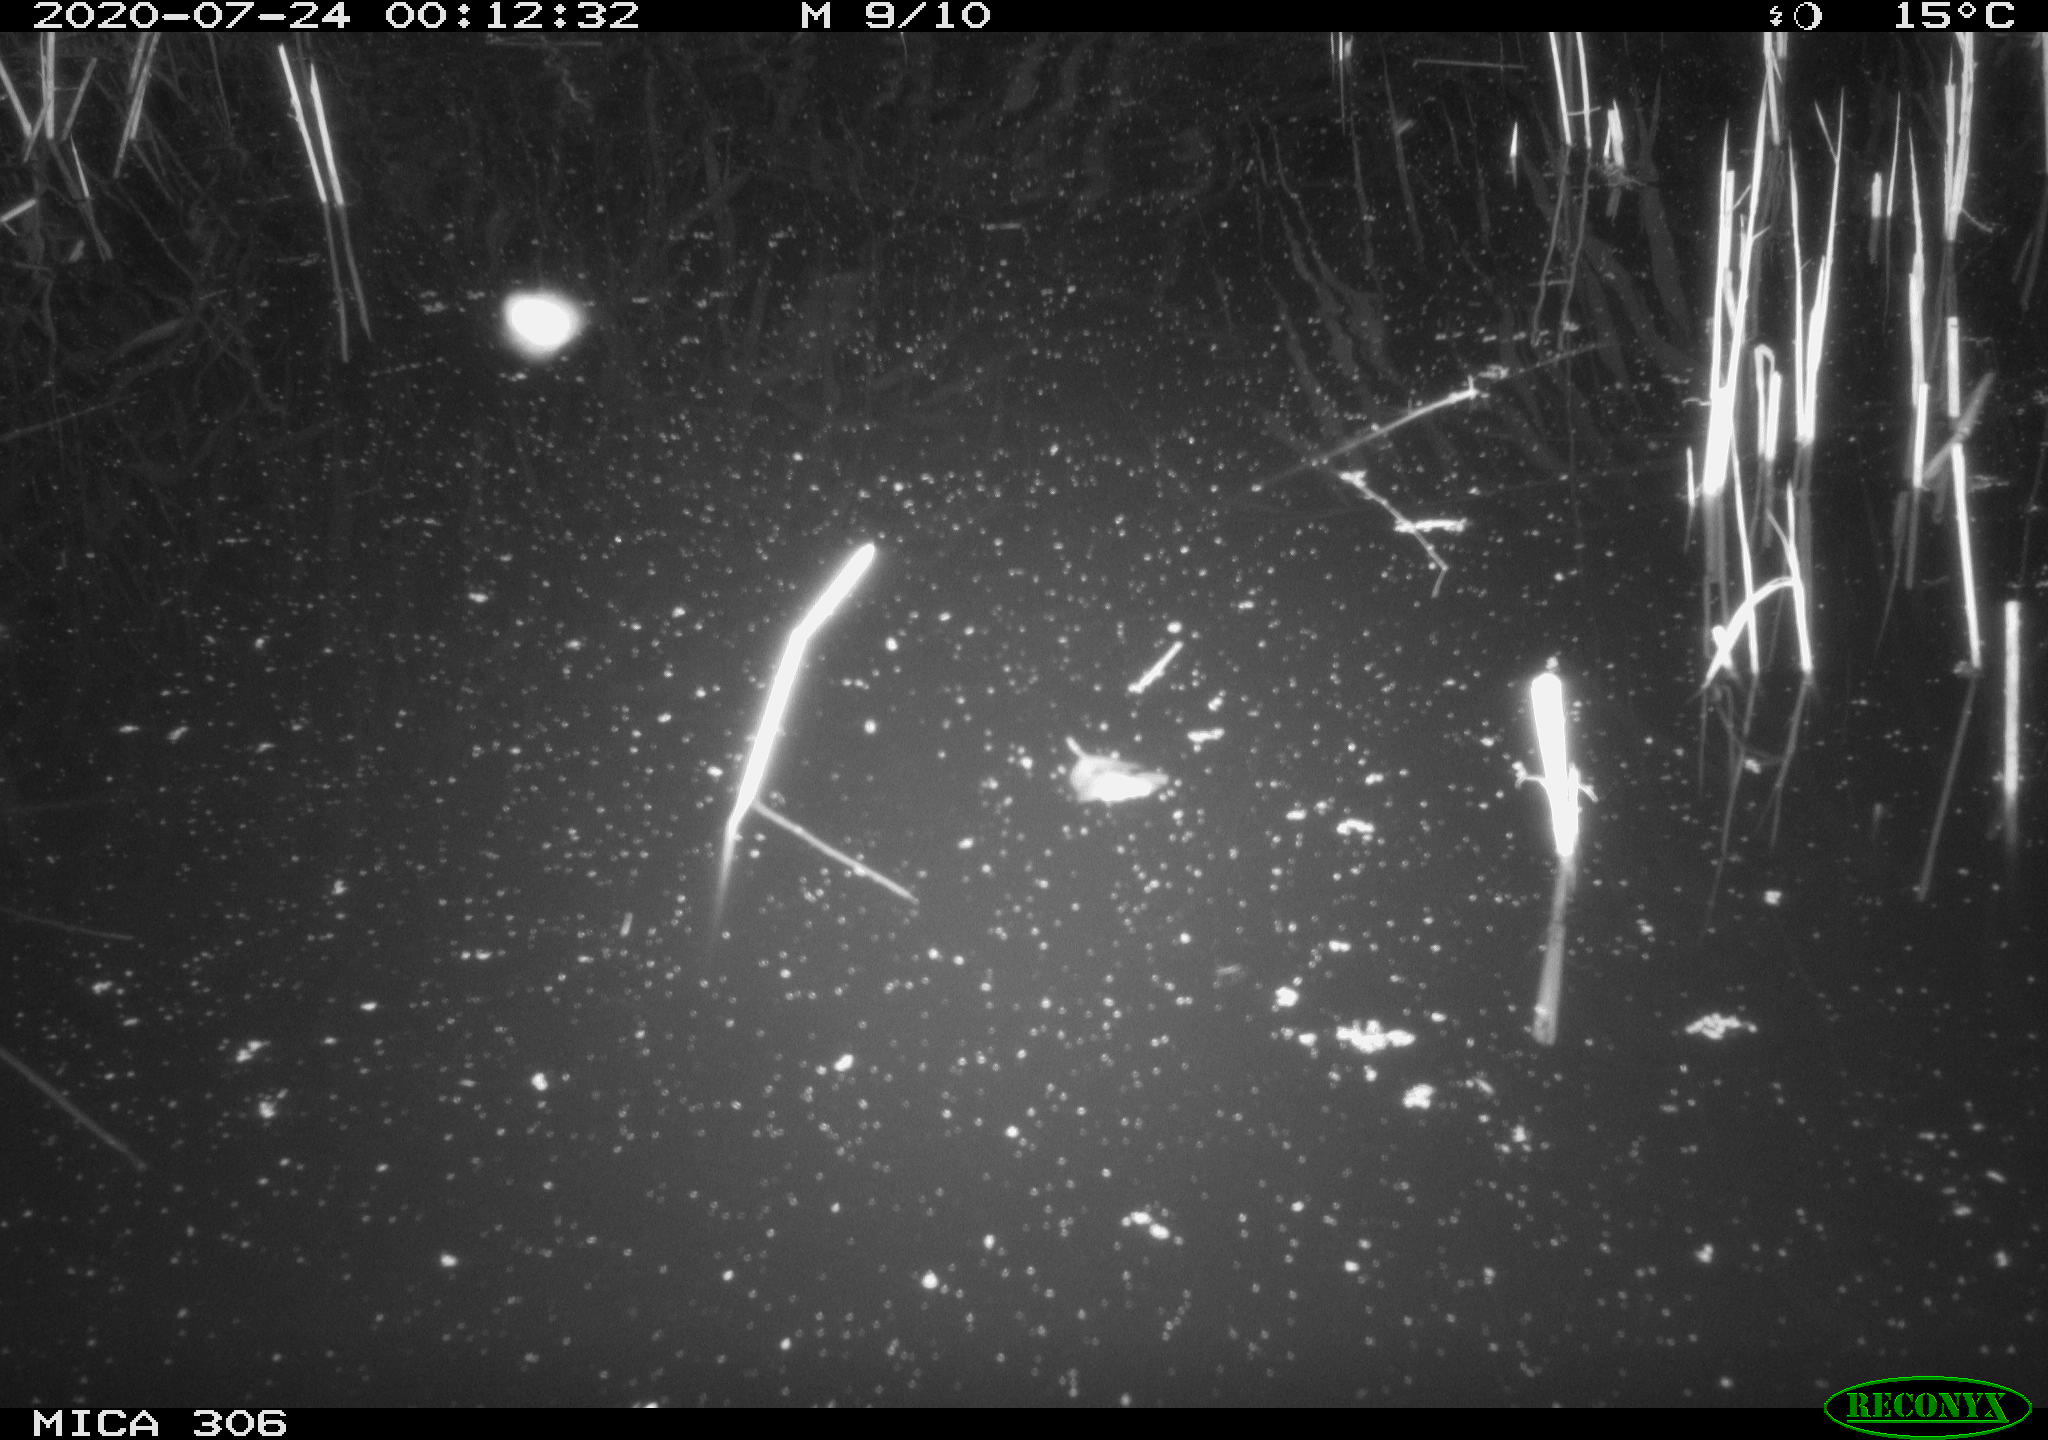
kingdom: Animalia
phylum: Chordata
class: Mammalia
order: Rodentia
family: Muridae
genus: Rattus
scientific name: Rattus norvegicus
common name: Brown rat
